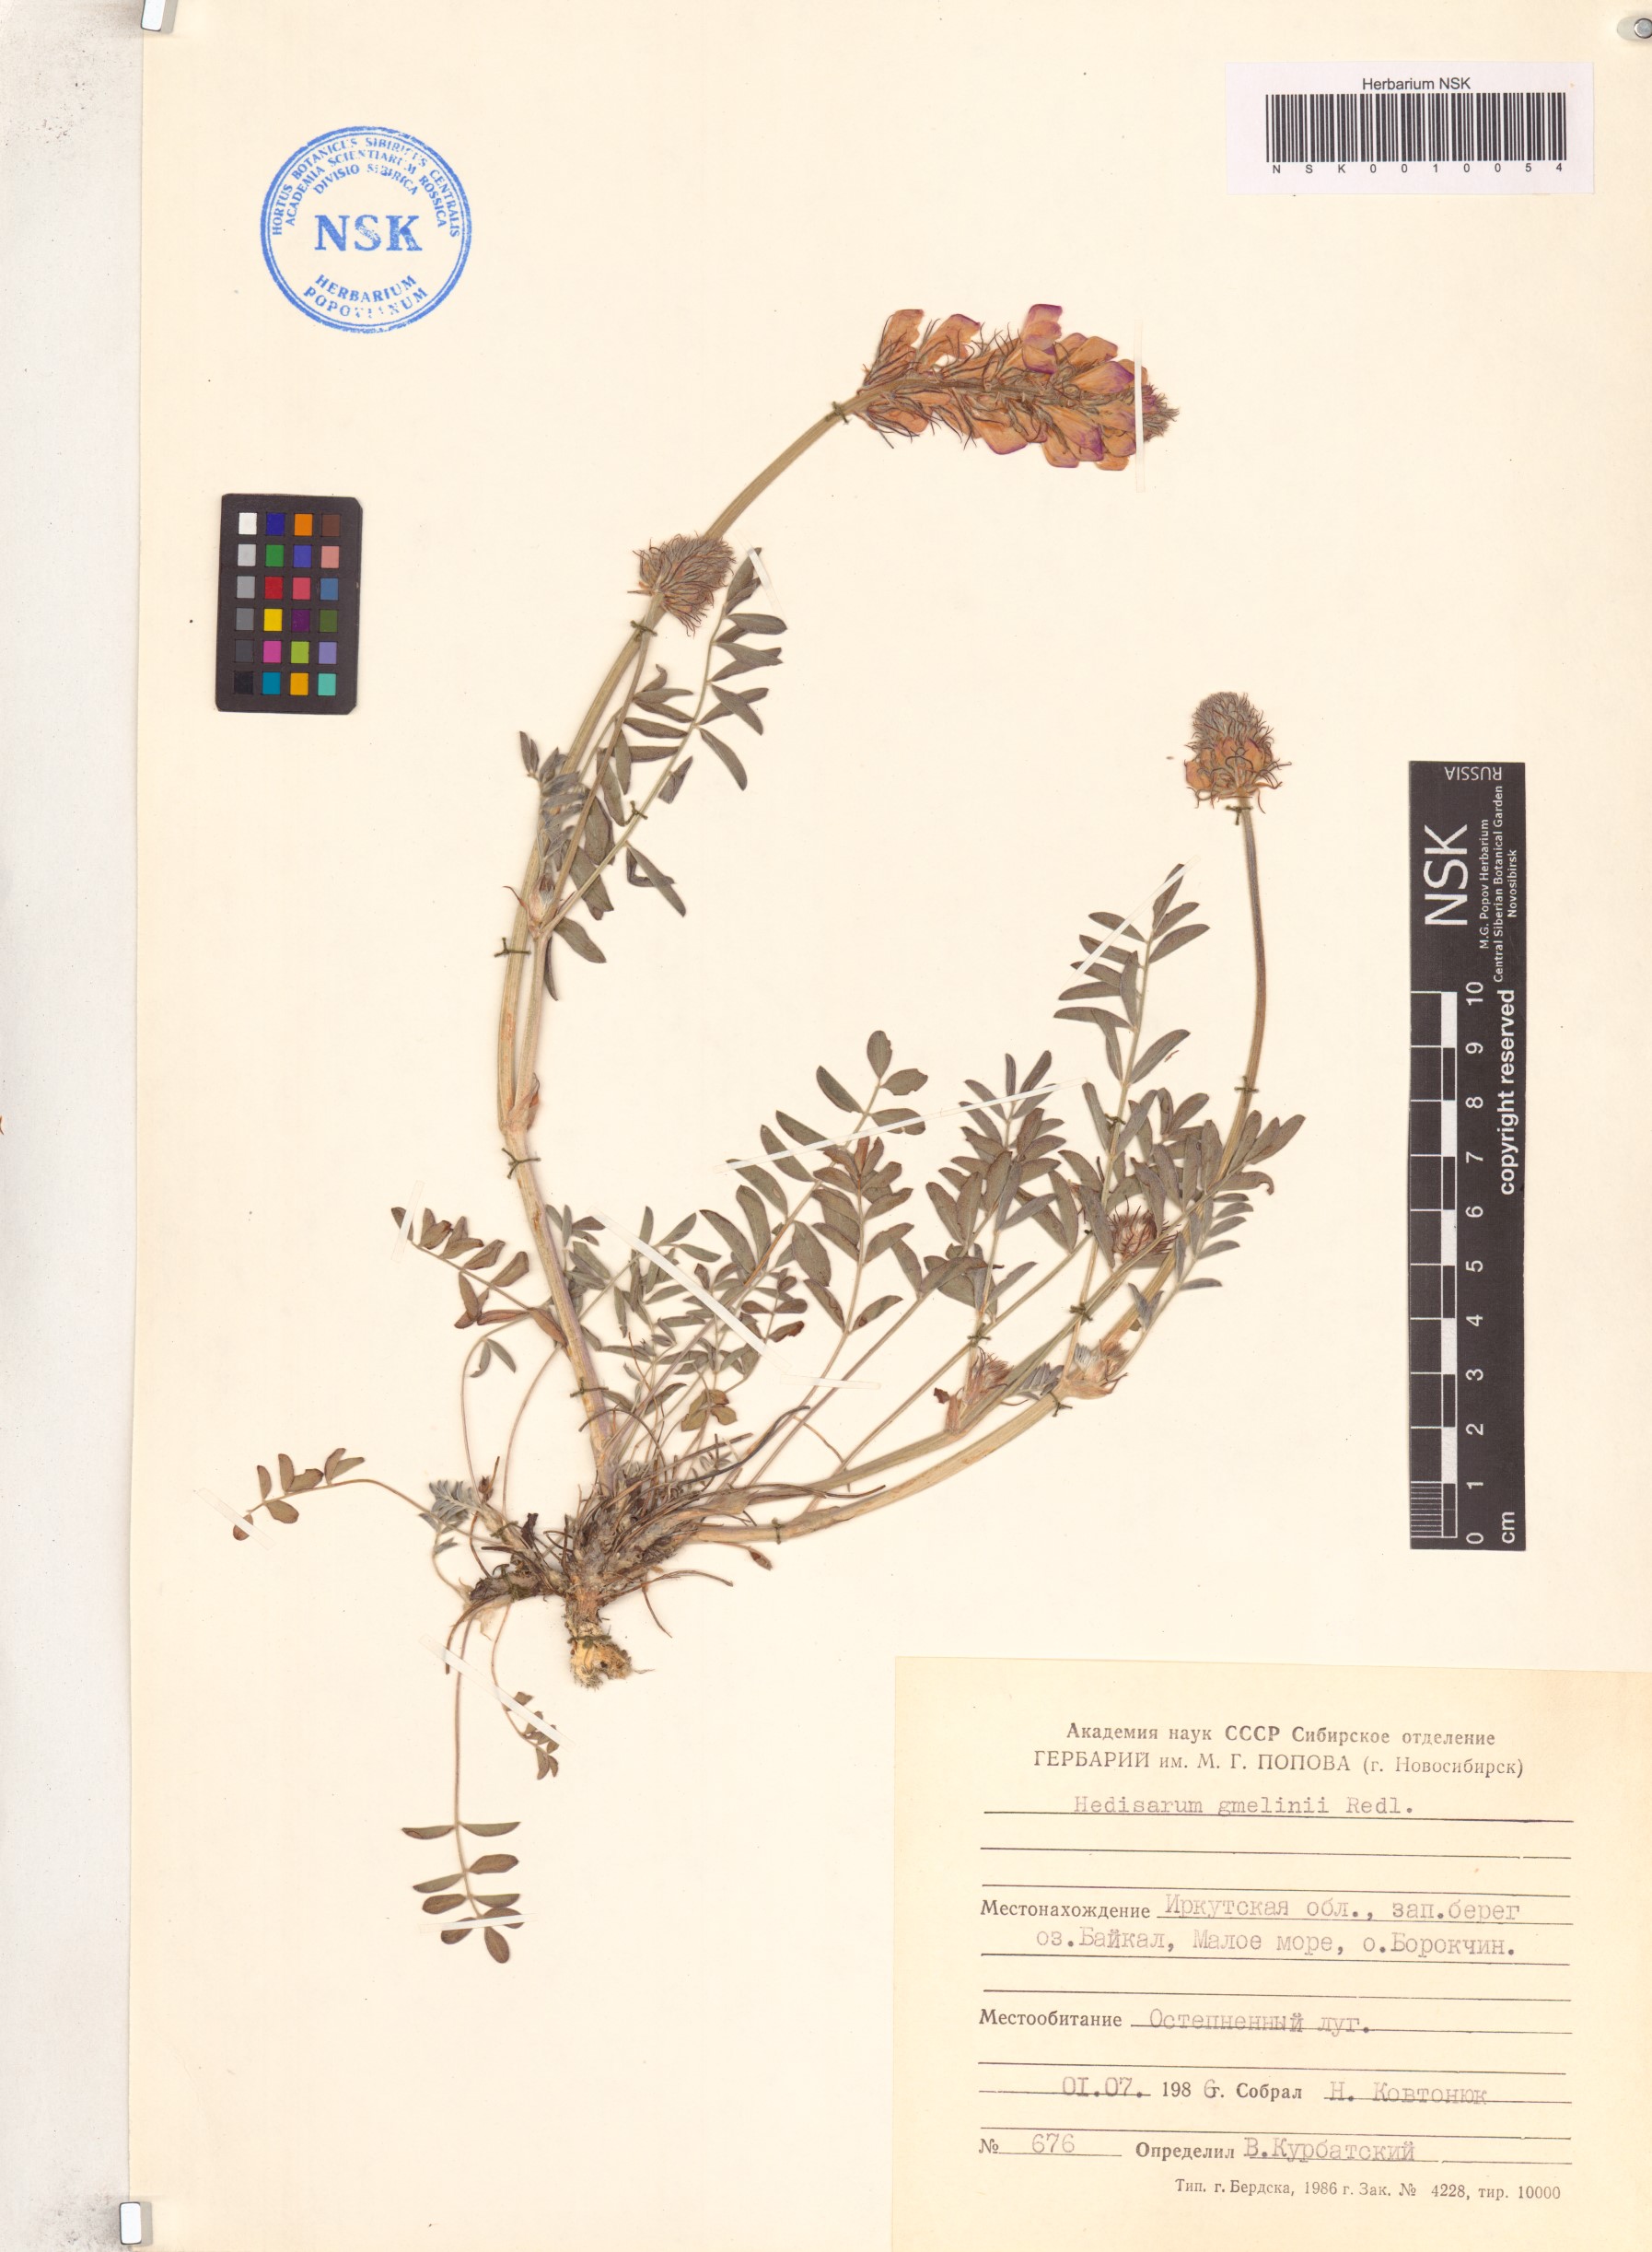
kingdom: Plantae
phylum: Tracheophyta
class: Magnoliopsida
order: Fabales
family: Fabaceae
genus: Hedysarum
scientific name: Hedysarum gmelinii
